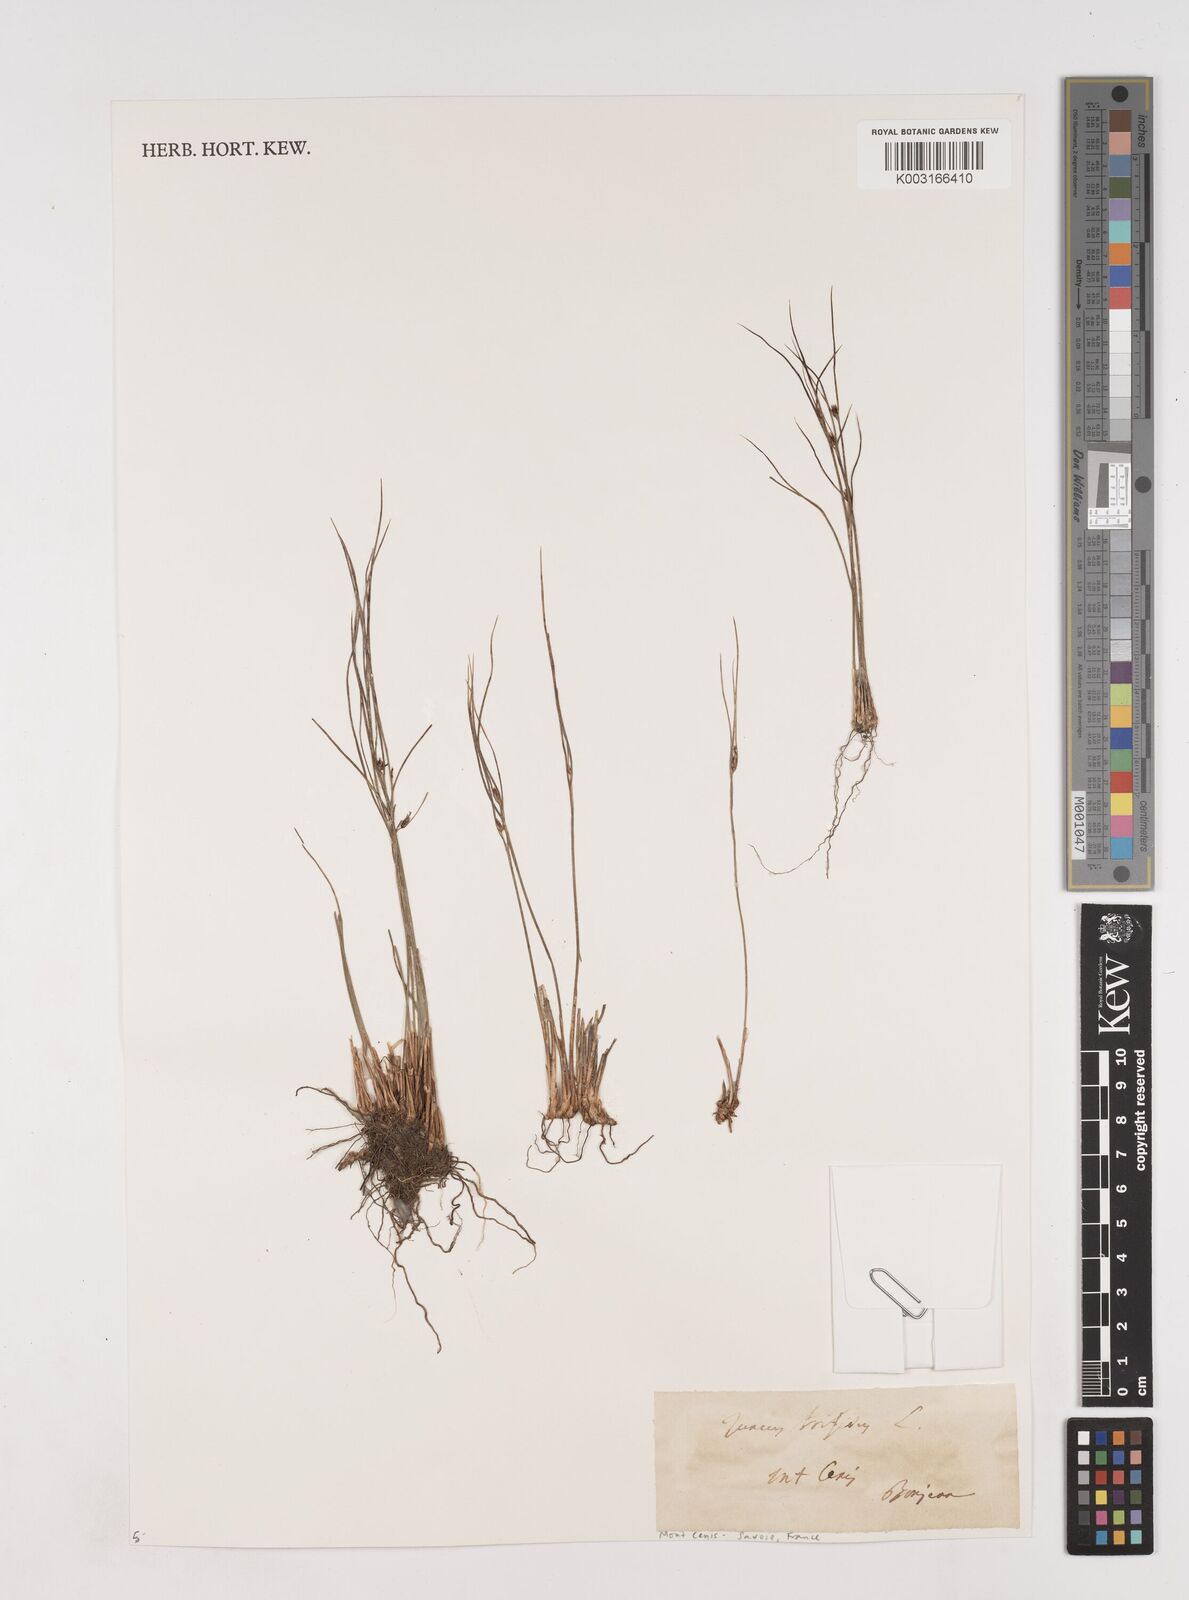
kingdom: Plantae
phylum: Tracheophyta
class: Liliopsida
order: Poales
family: Juncaceae
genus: Oreojuncus
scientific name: Oreojuncus trifidus
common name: Highland rush
